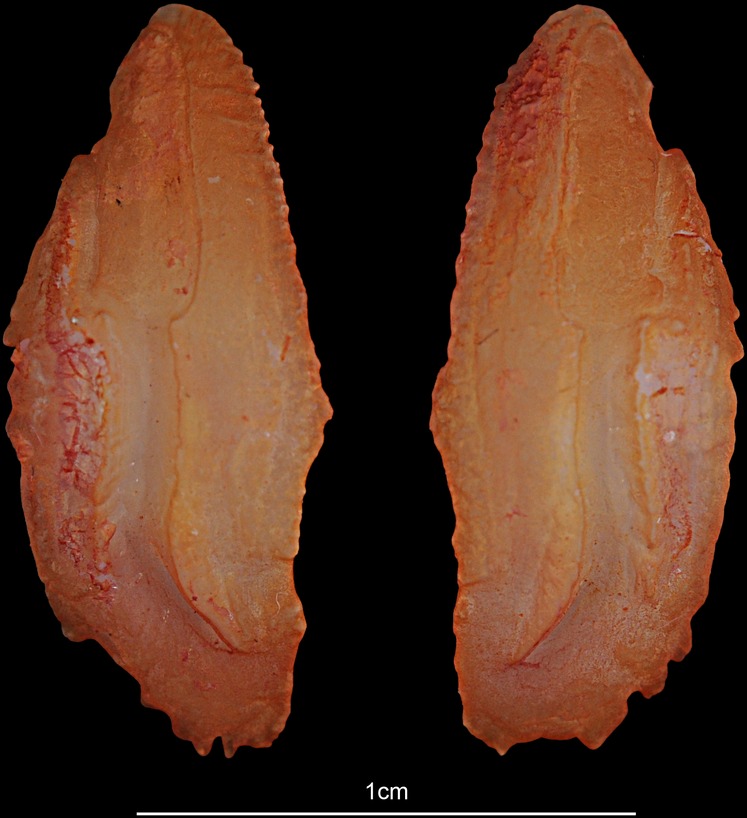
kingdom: Animalia
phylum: Chordata
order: Perciformes
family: Serranidae
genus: Epinephelus
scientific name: Epinephelus fuscoguttatus
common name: Brown-marbled grouper
